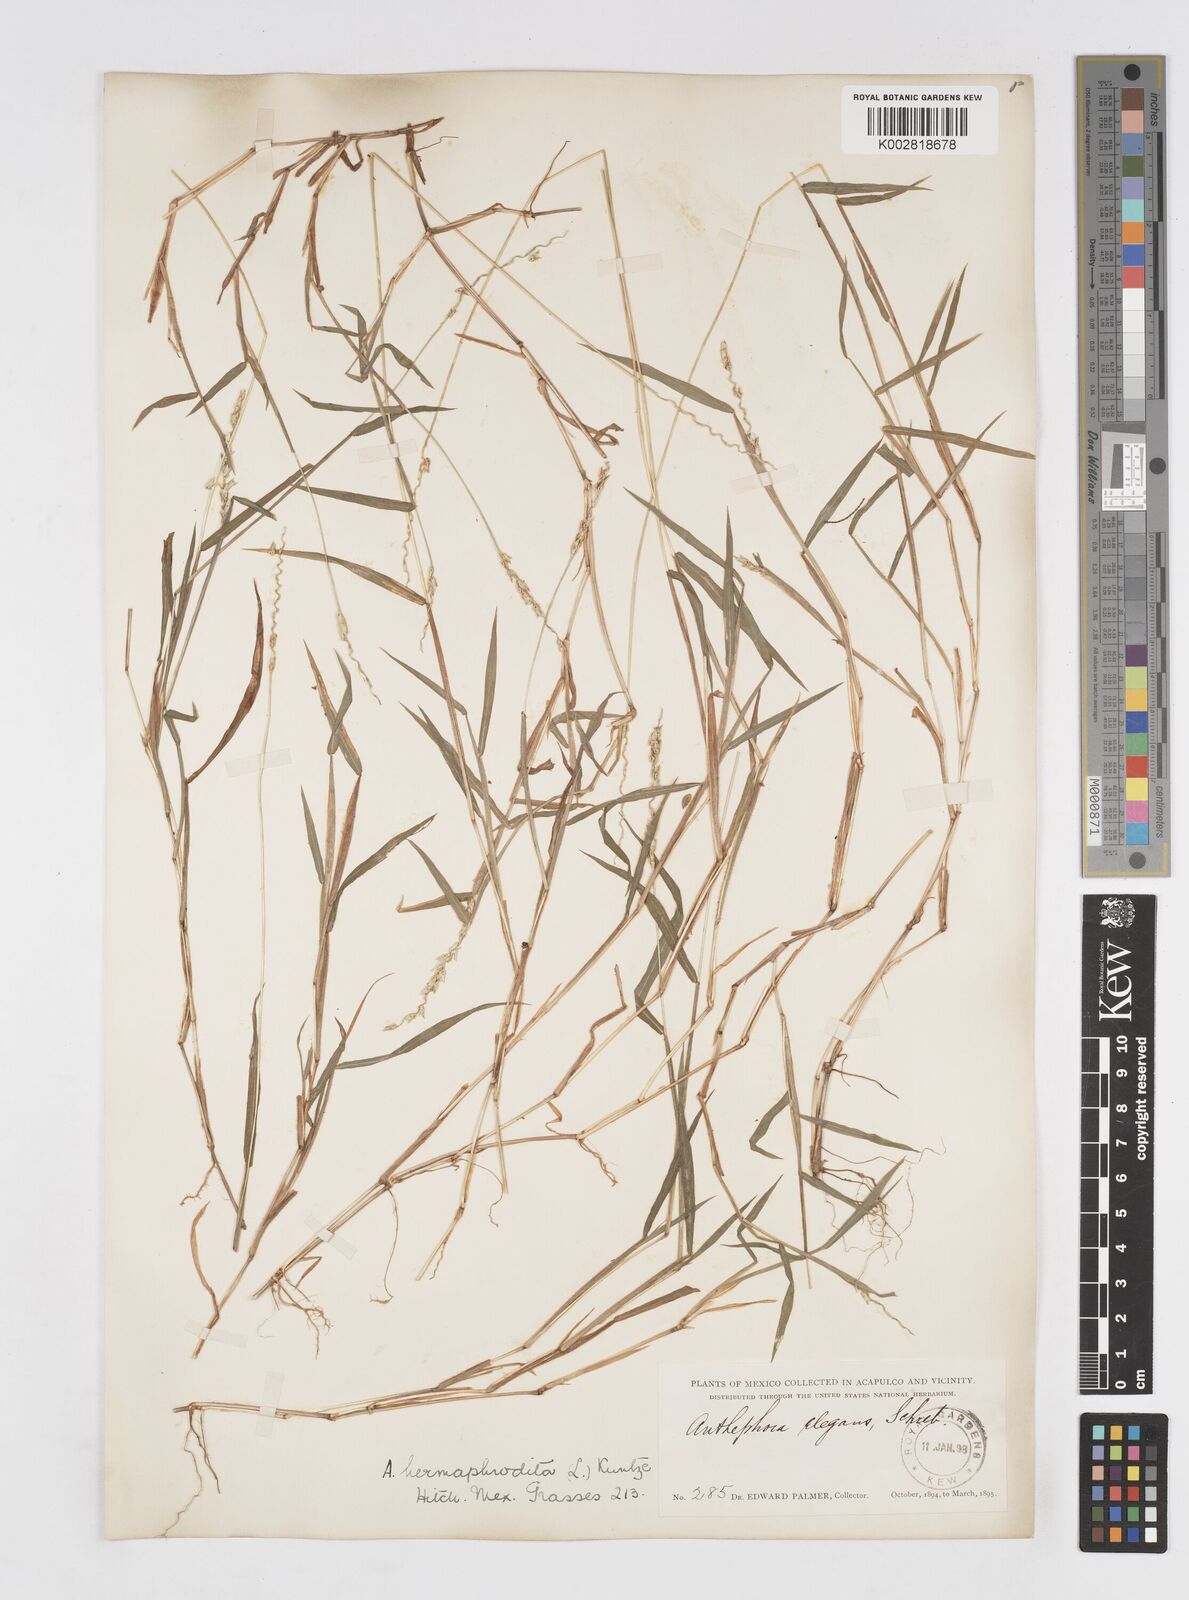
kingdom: Plantae
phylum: Tracheophyta
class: Liliopsida
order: Poales
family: Poaceae
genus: Anthephora
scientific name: Anthephora hermaphrodita
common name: Oldfield grass
